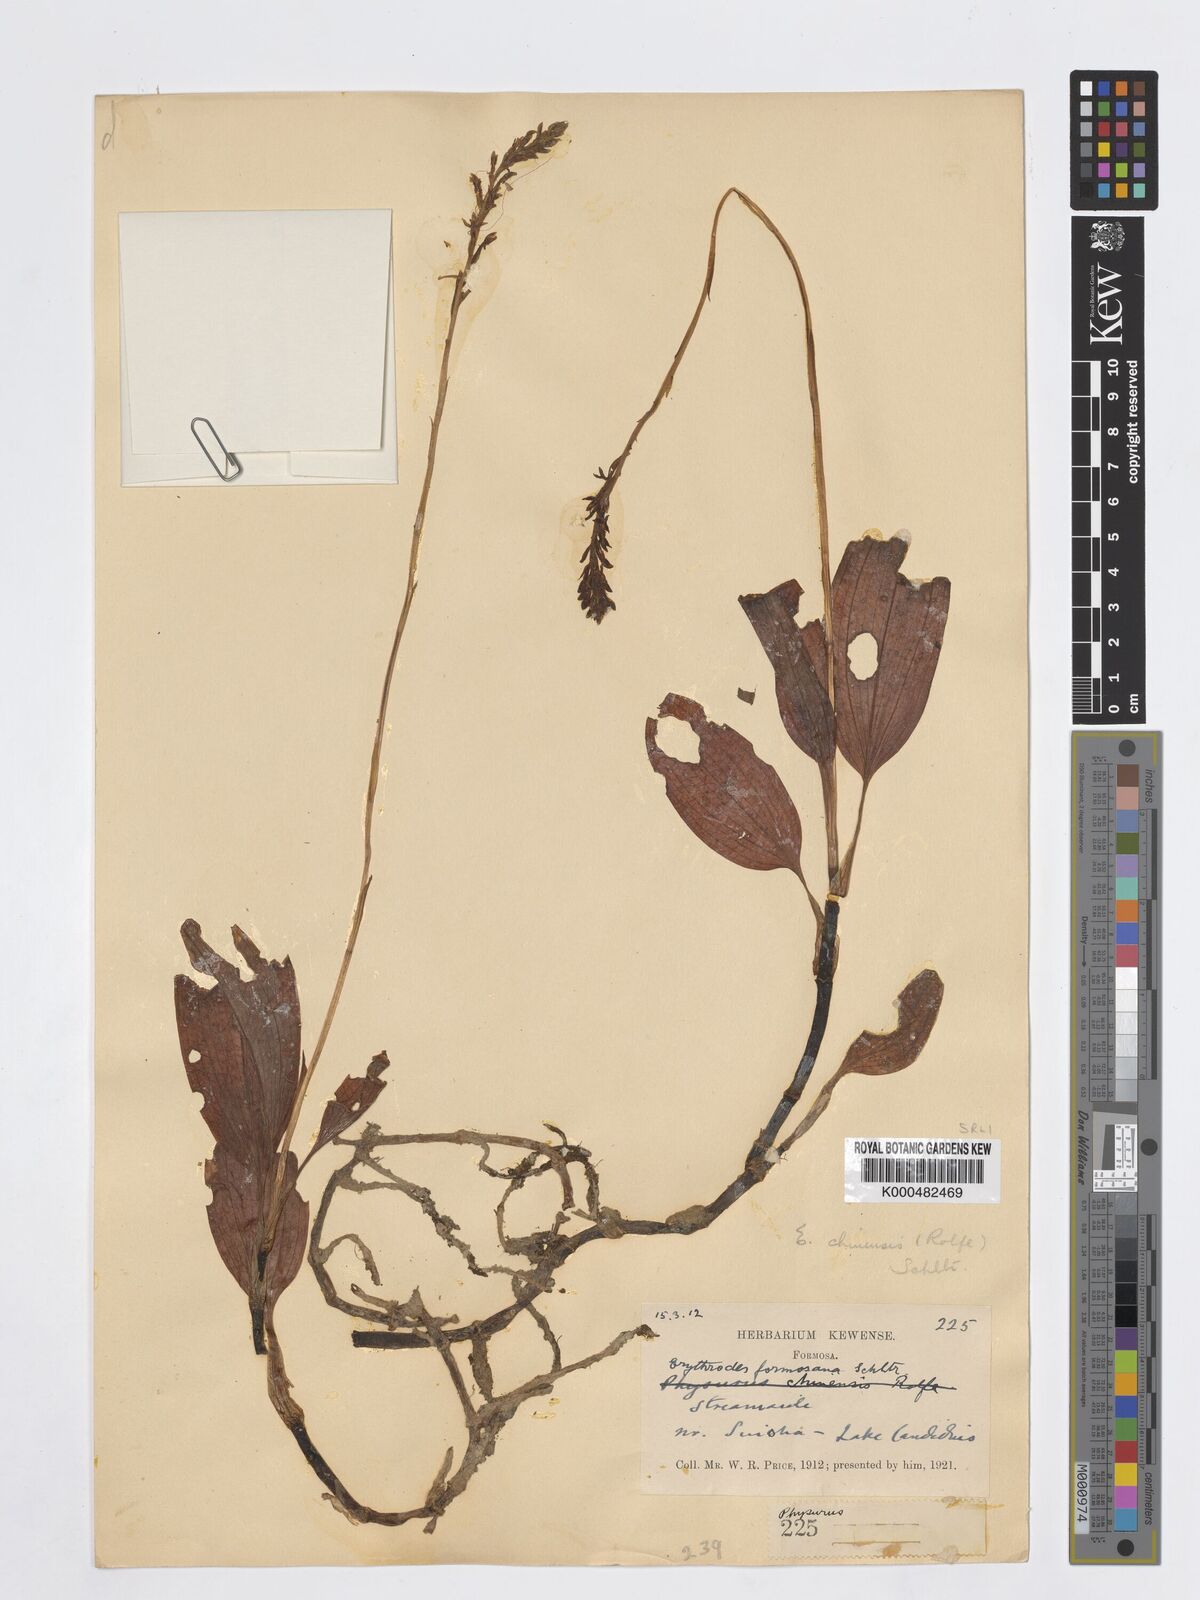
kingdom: Plantae
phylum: Tracheophyta
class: Liliopsida
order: Asparagales
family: Orchidaceae
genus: Erythrodes
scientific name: Erythrodes chinensis
